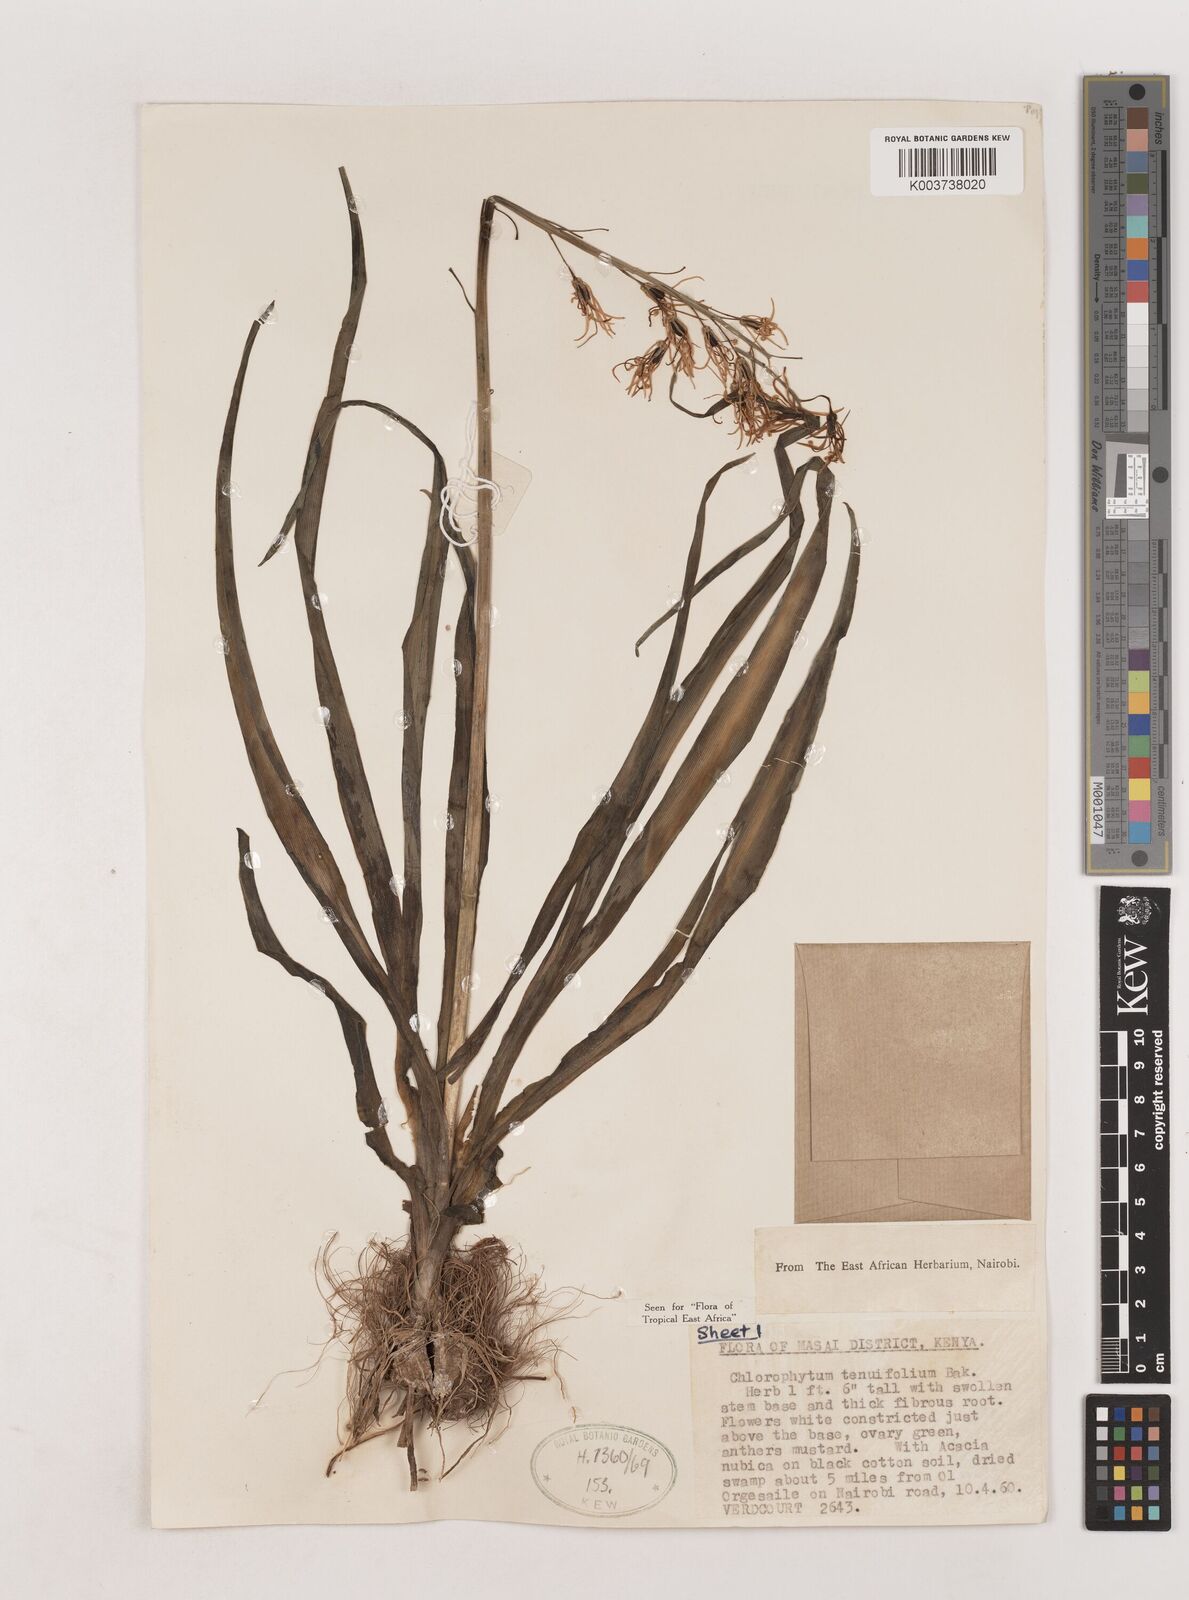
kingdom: Plantae
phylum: Tracheophyta
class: Liliopsida
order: Asparagales
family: Asparagaceae
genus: Chlorophytum
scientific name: Chlorophytum somaliense
